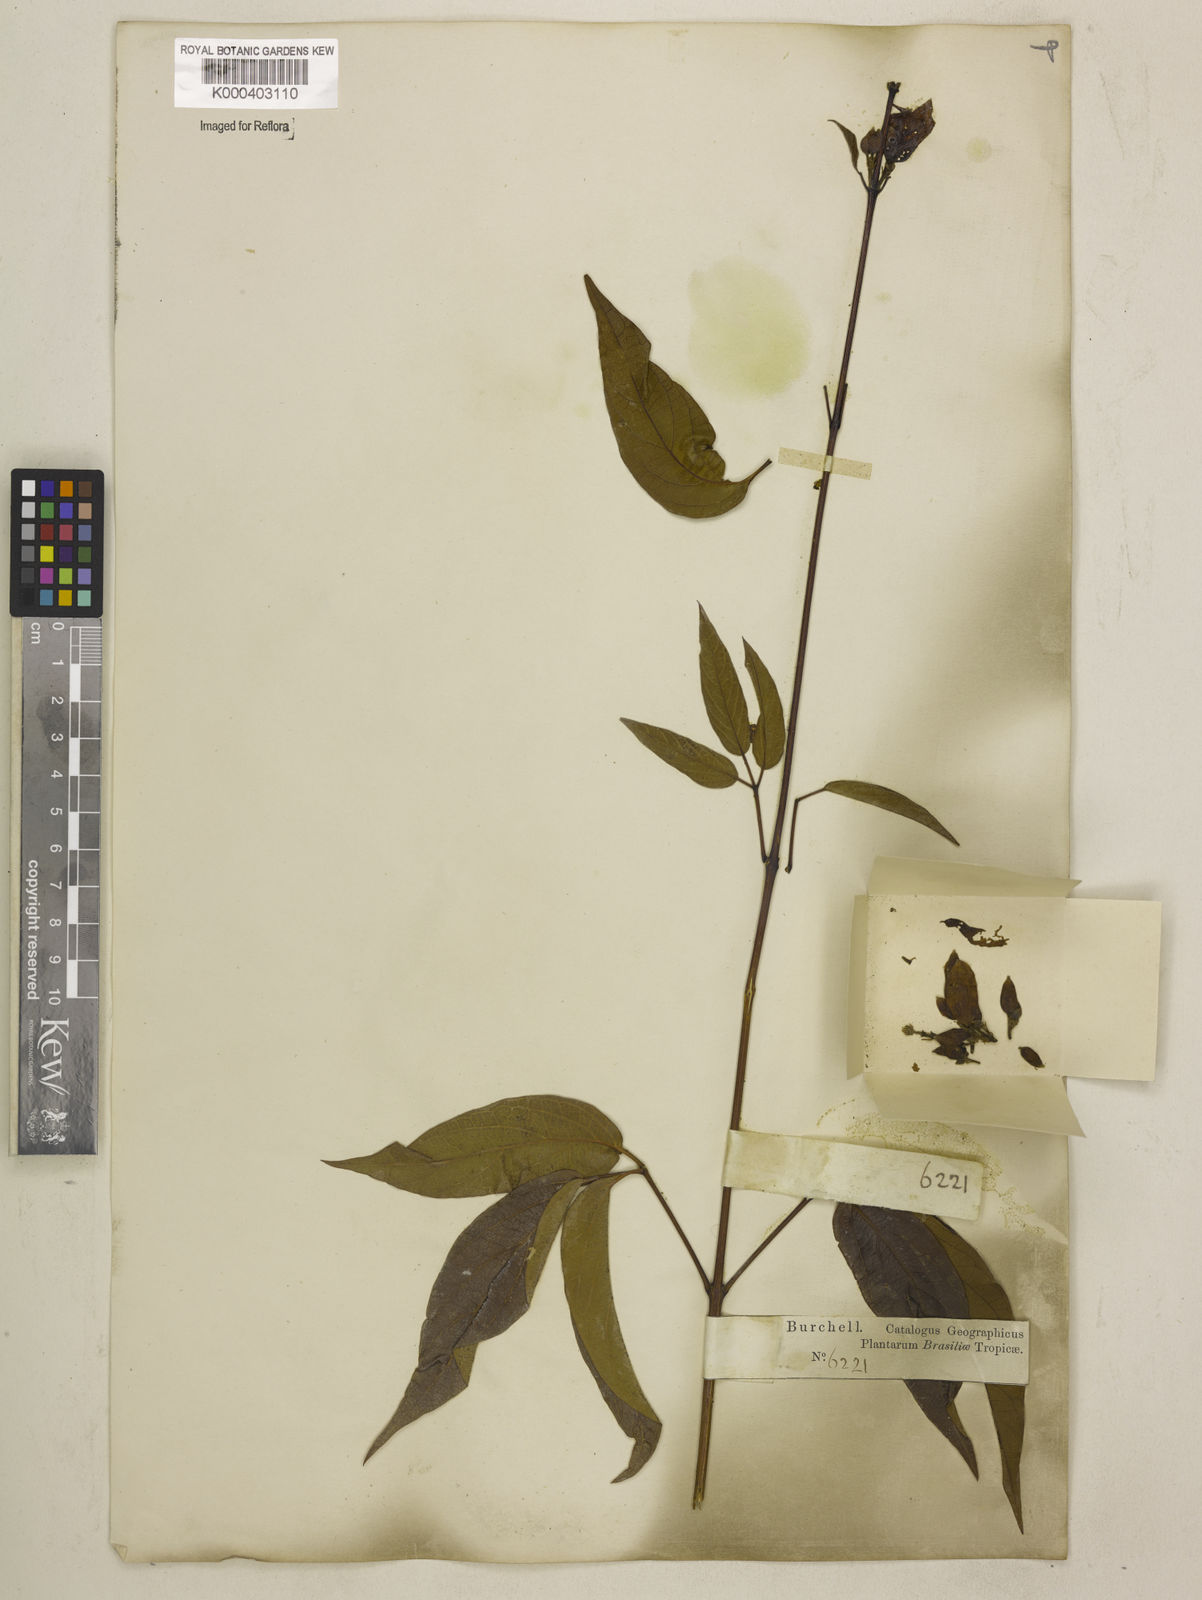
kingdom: Plantae
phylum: Tracheophyta
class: Magnoliopsida
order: Lamiales
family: Bignoniaceae
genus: Cuspidaria
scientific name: Cuspidaria sceptrum
